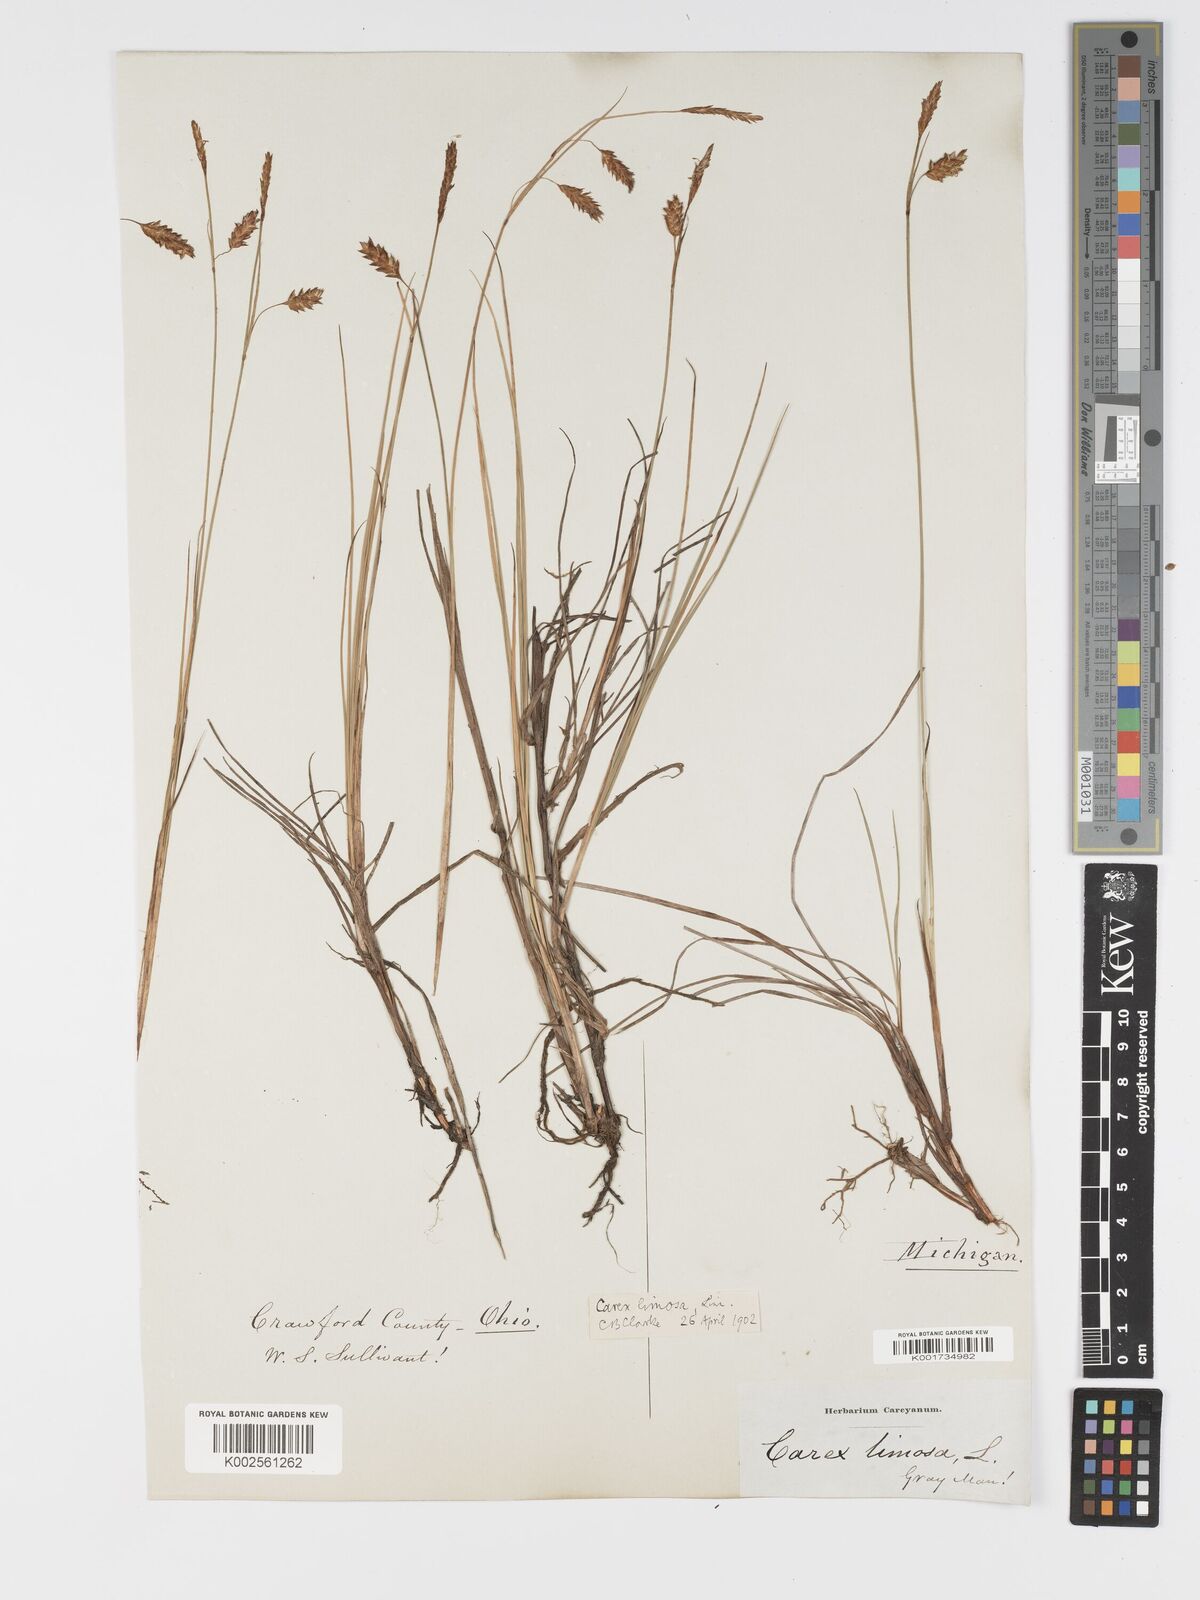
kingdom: Plantae
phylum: Tracheophyta
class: Liliopsida
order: Poales
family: Cyperaceae
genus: Carex
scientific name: Carex limosa
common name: Bog sedge
